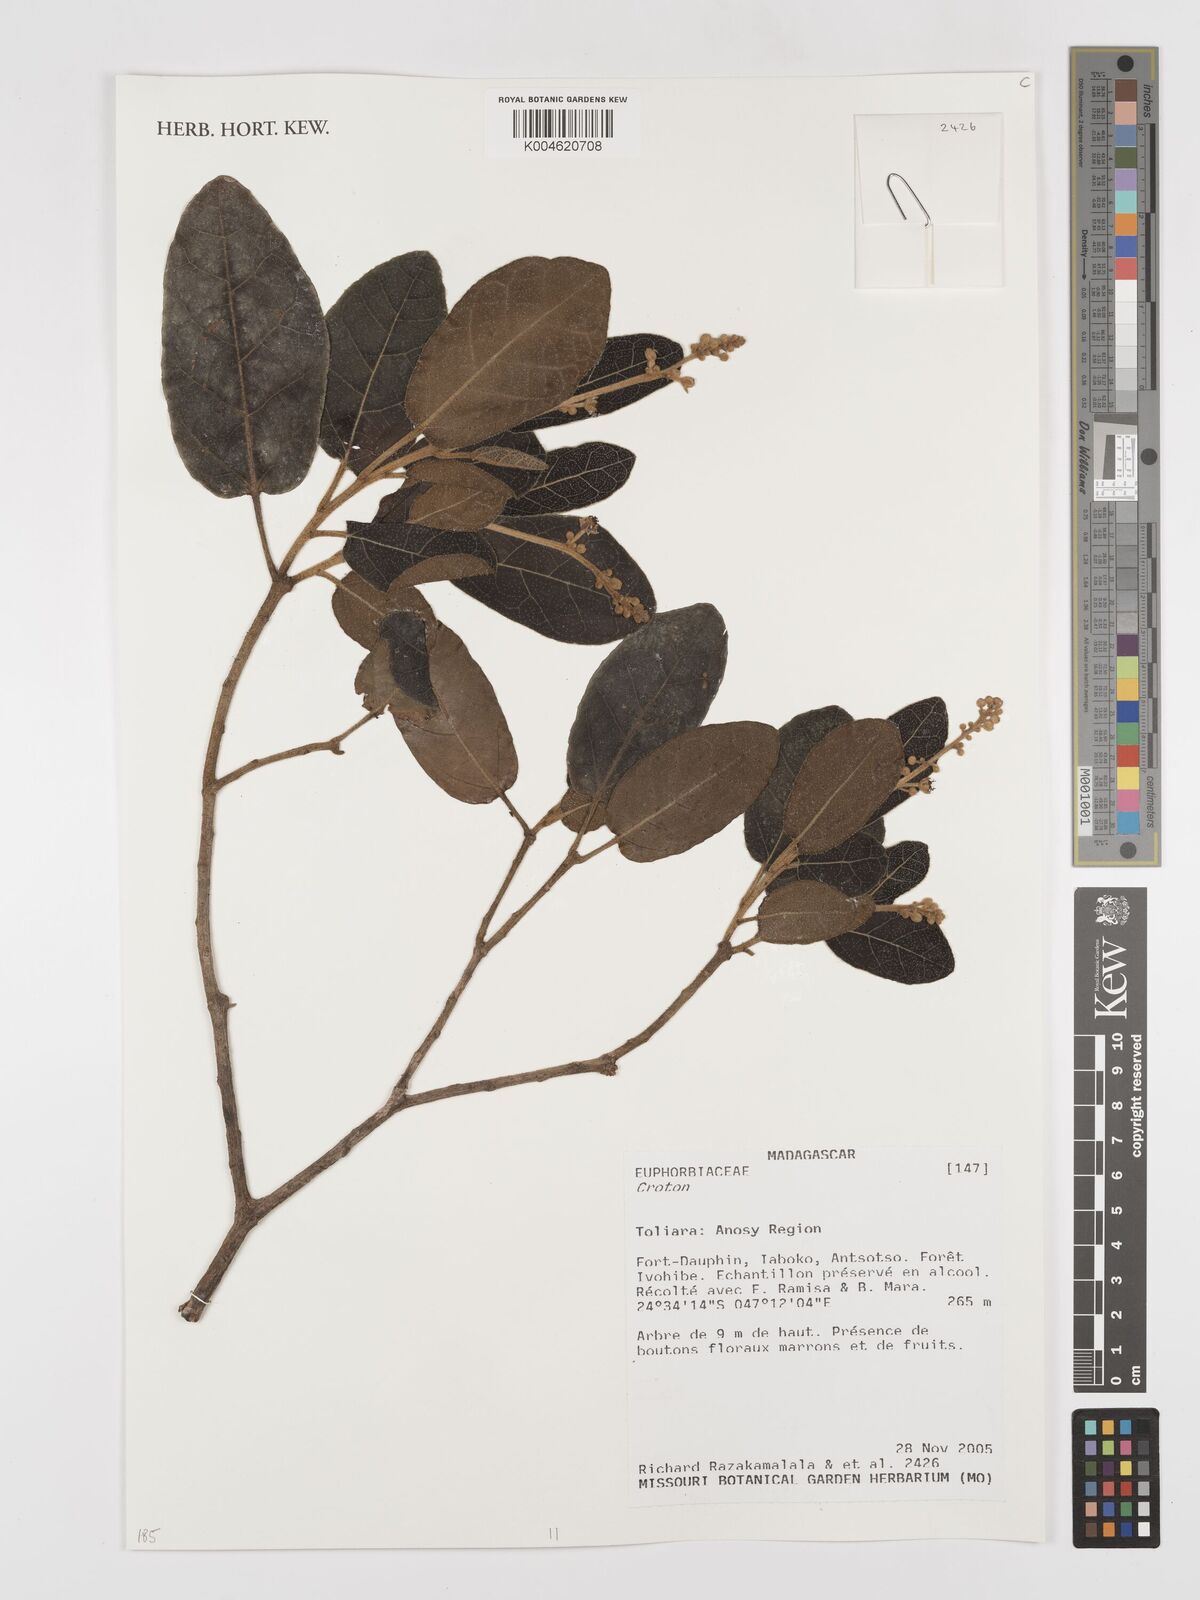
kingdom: Plantae
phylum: Tracheophyta
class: Magnoliopsida
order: Malpighiales
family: Euphorbiaceae
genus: Croton
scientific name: Croton
